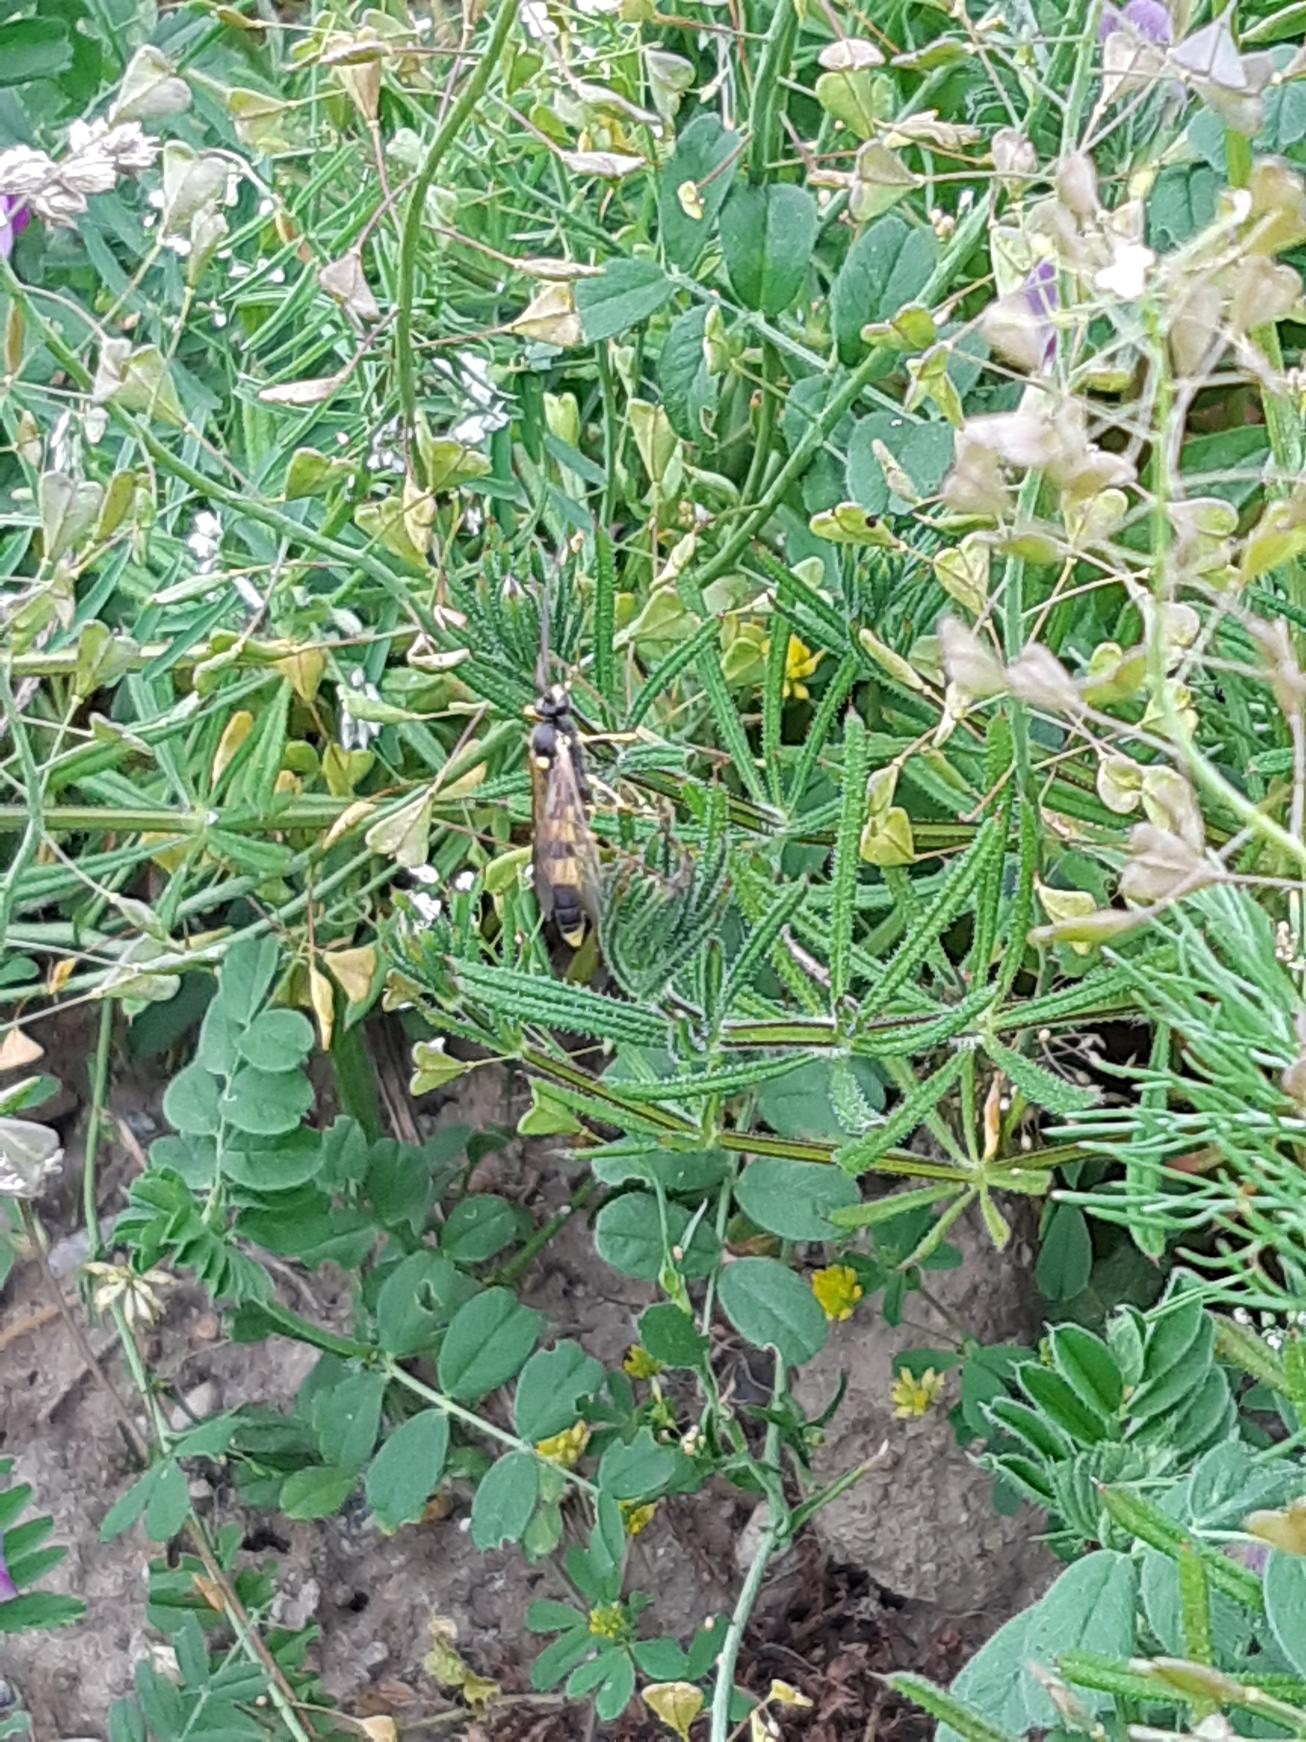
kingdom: Animalia
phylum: Arthropoda
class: Insecta
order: Hymenoptera
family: Ichneumonidae
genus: Amblyteles
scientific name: Amblyteles armatorius
